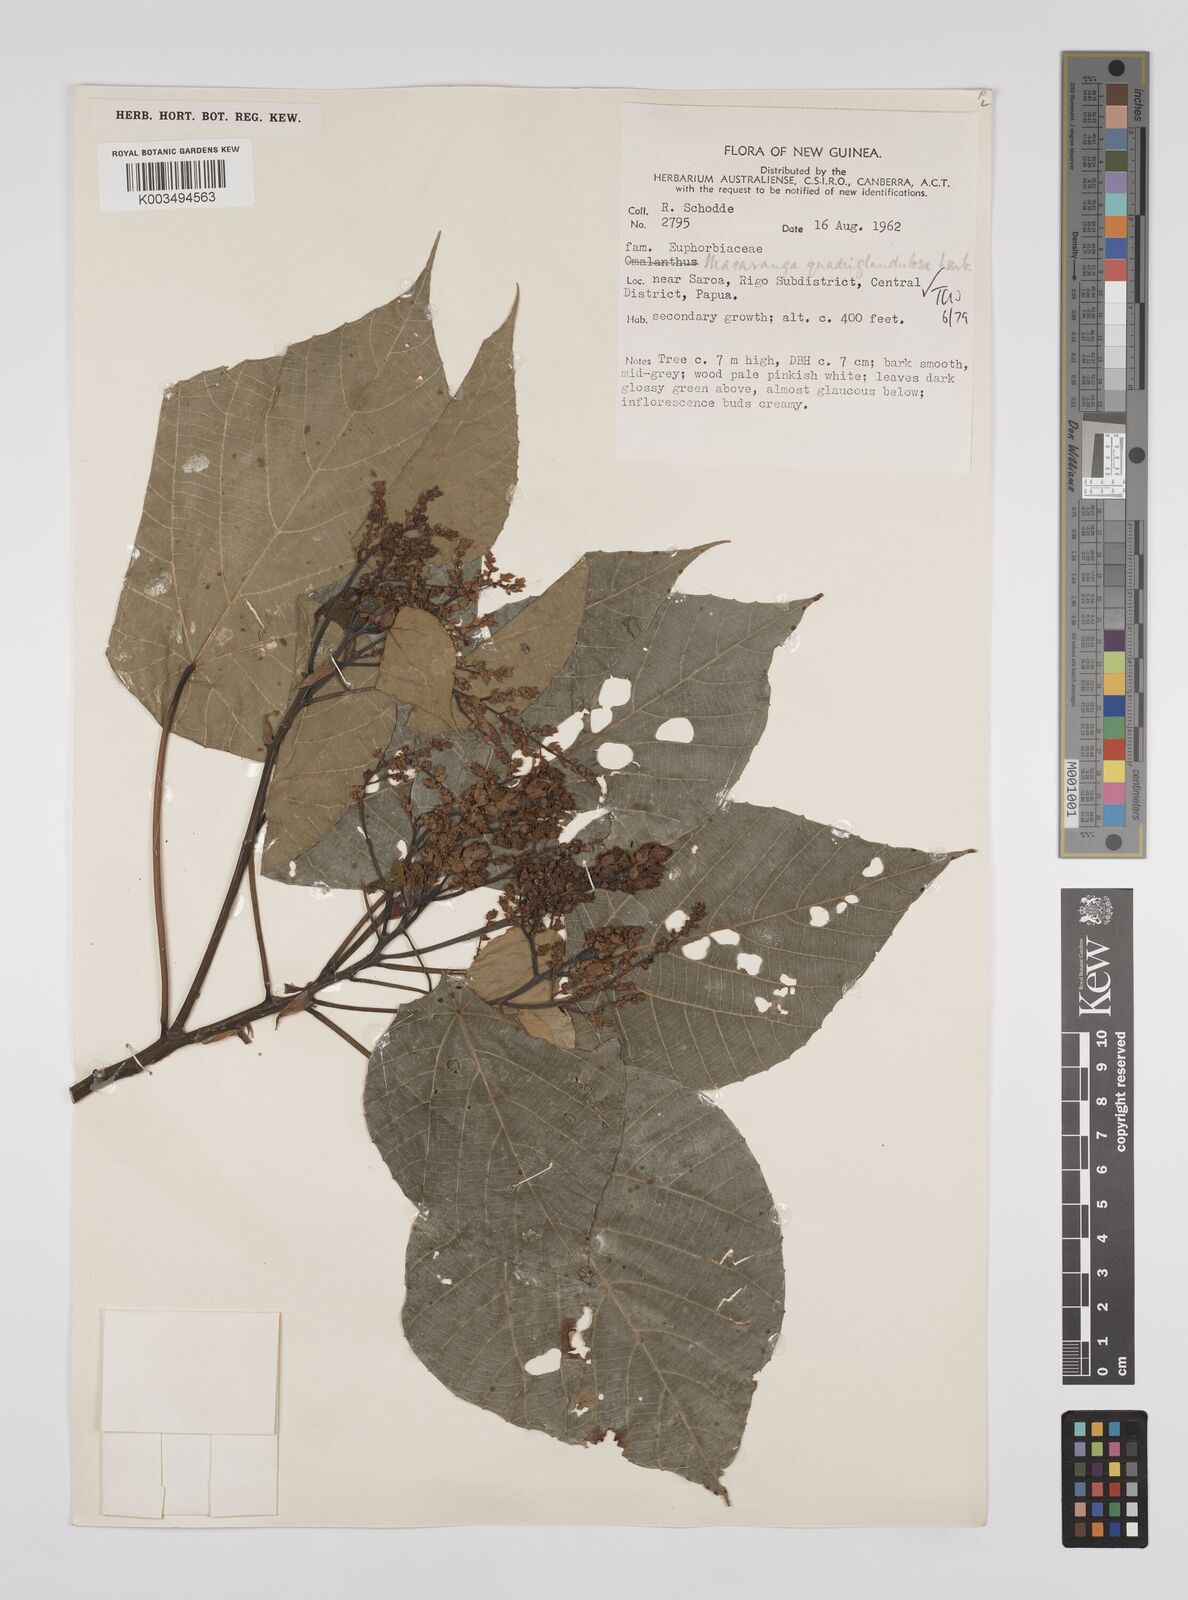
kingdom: Plantae
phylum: Tracheophyta
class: Magnoliopsida
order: Malpighiales
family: Euphorbiaceae
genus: Macaranga
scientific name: Macaranga quadriglandulosa
